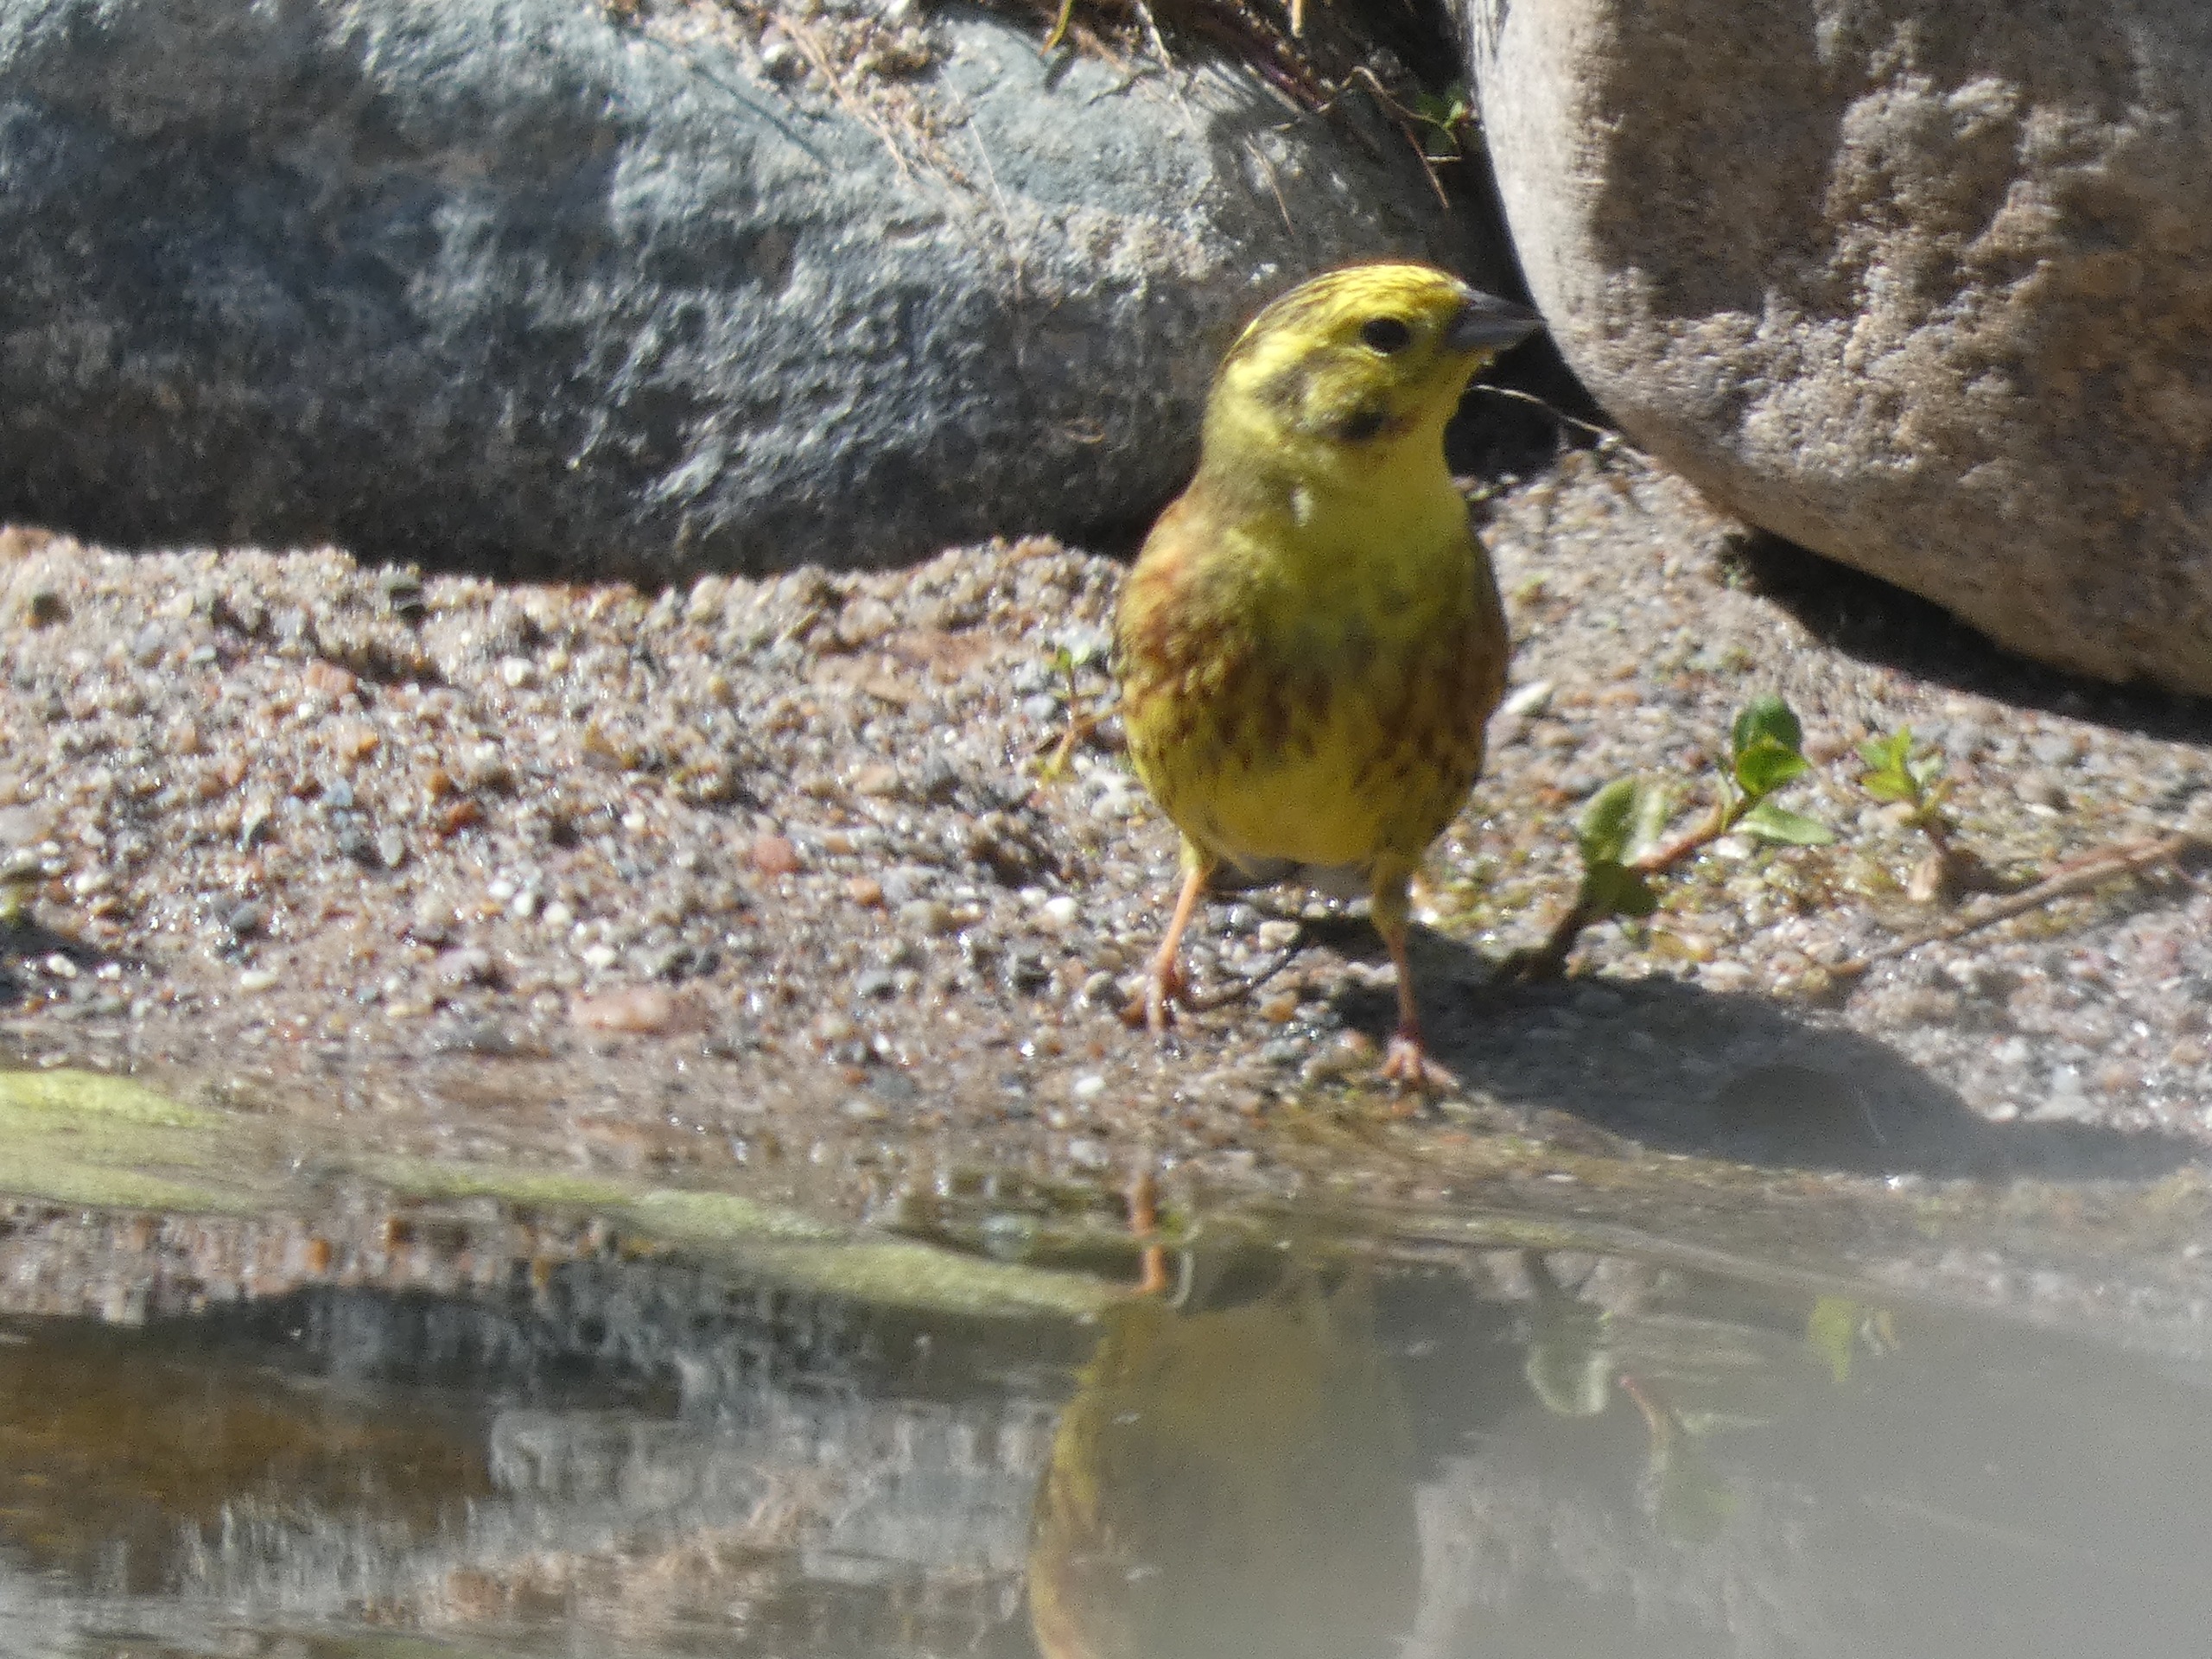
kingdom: Animalia
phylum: Chordata
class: Aves
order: Passeriformes
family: Emberizidae
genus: Emberiza
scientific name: Emberiza citrinella
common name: Gulspurv
